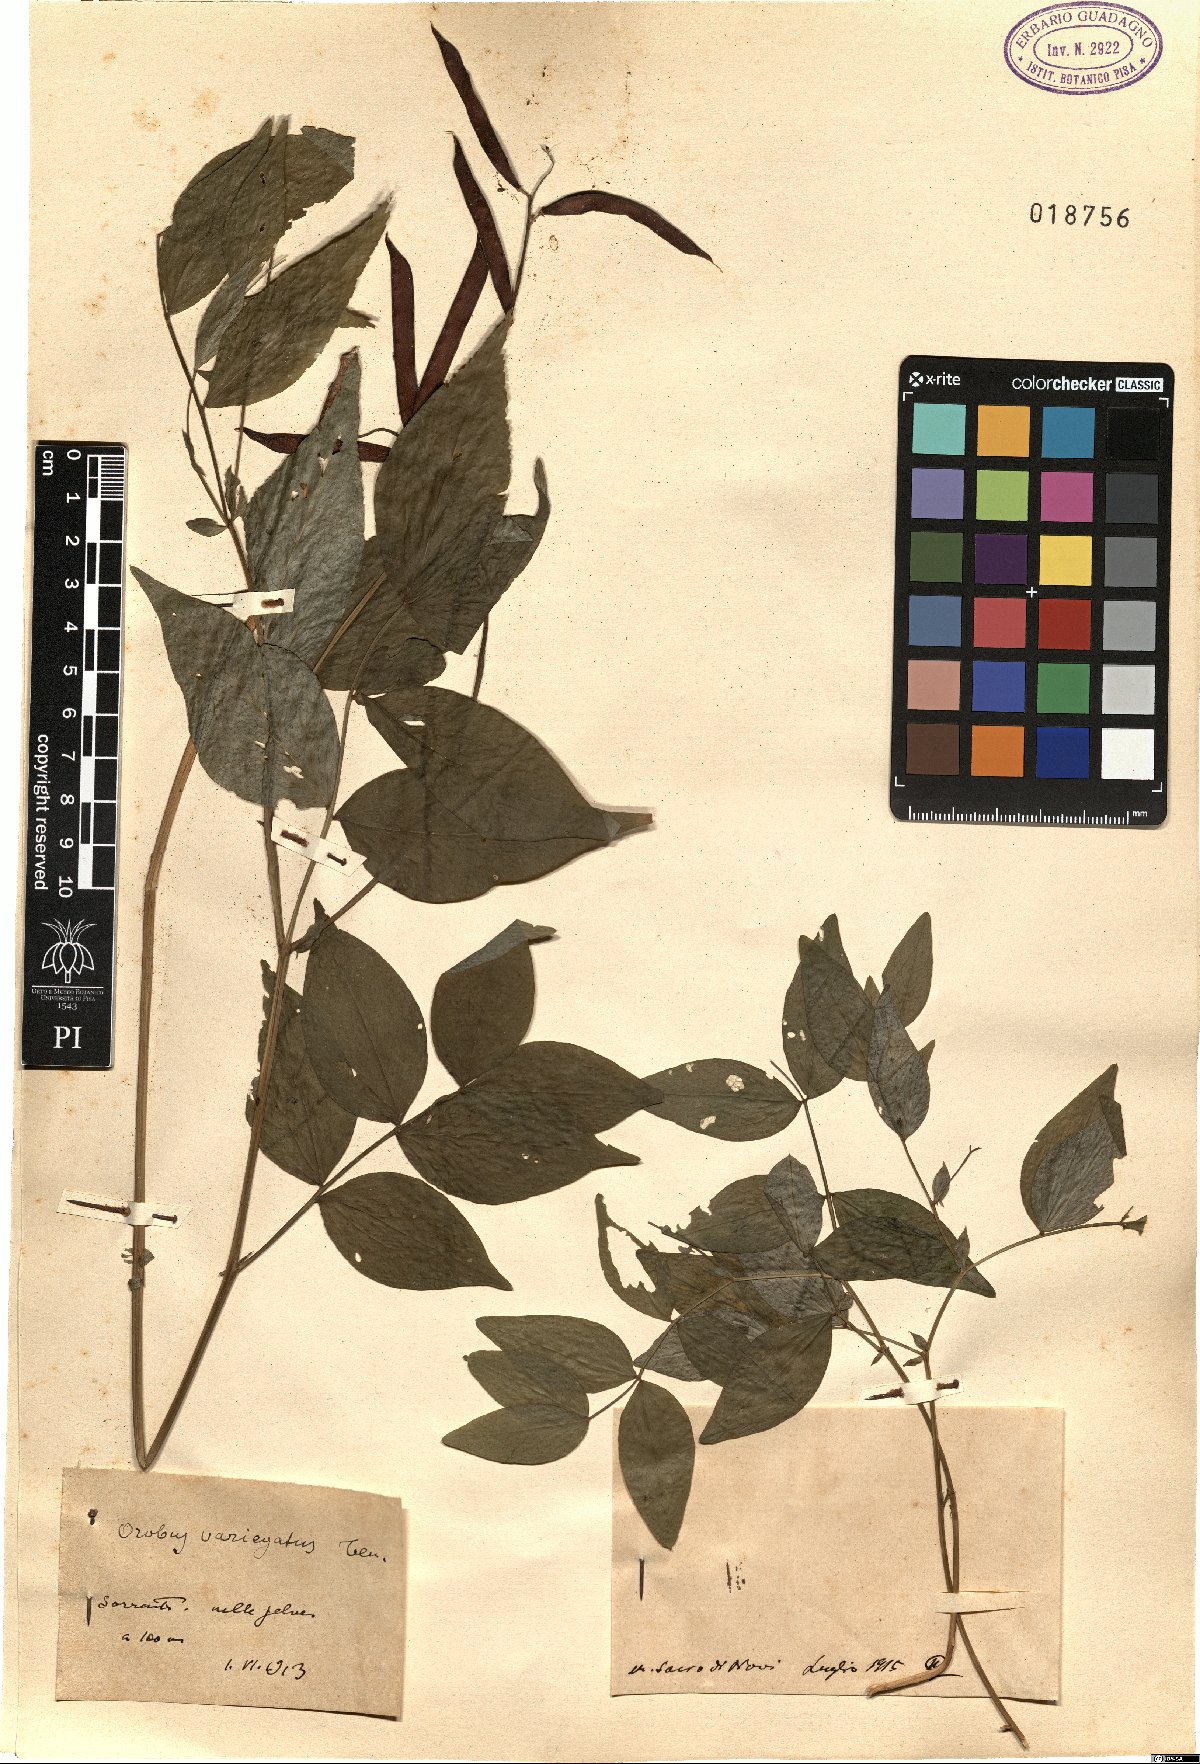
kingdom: Plantae
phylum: Tracheophyta
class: Magnoliopsida
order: Fabales
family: Fabaceae
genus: Lathyrus
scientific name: Lathyrus
